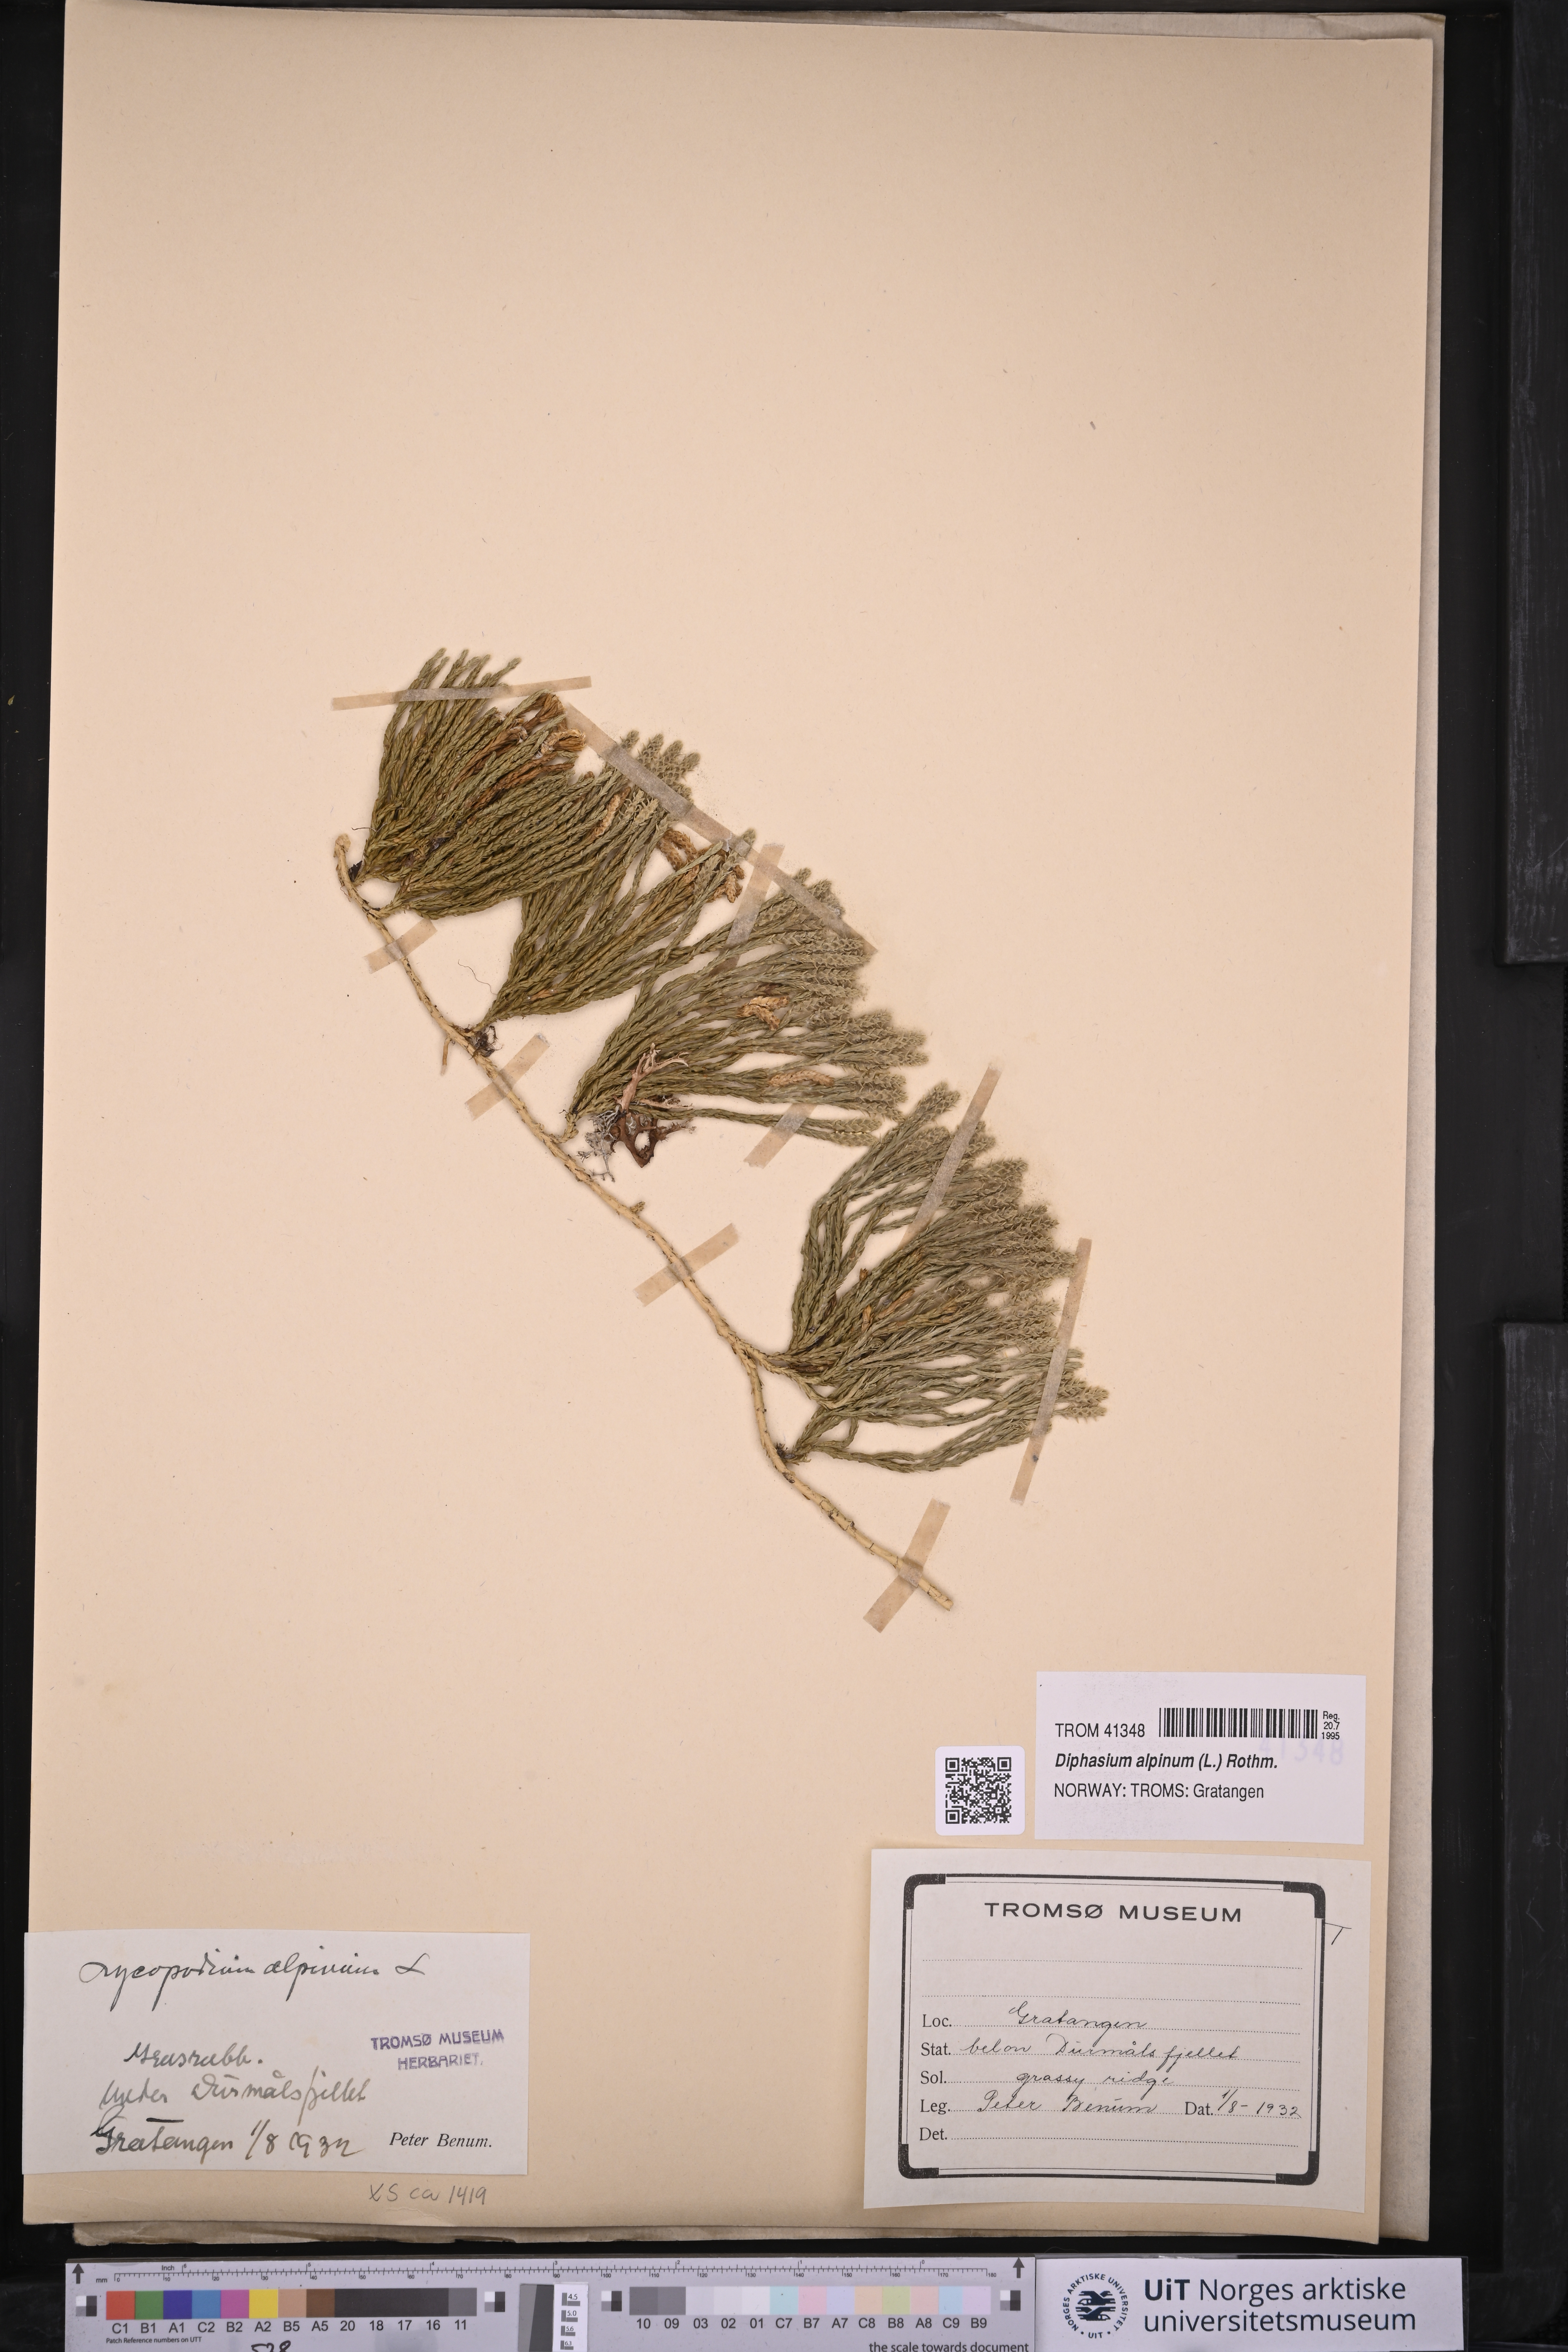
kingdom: Plantae
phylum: Tracheophyta
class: Lycopodiopsida
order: Lycopodiales
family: Lycopodiaceae
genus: Diphasiastrum
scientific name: Diphasiastrum alpinum
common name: Alpine clubmoss
